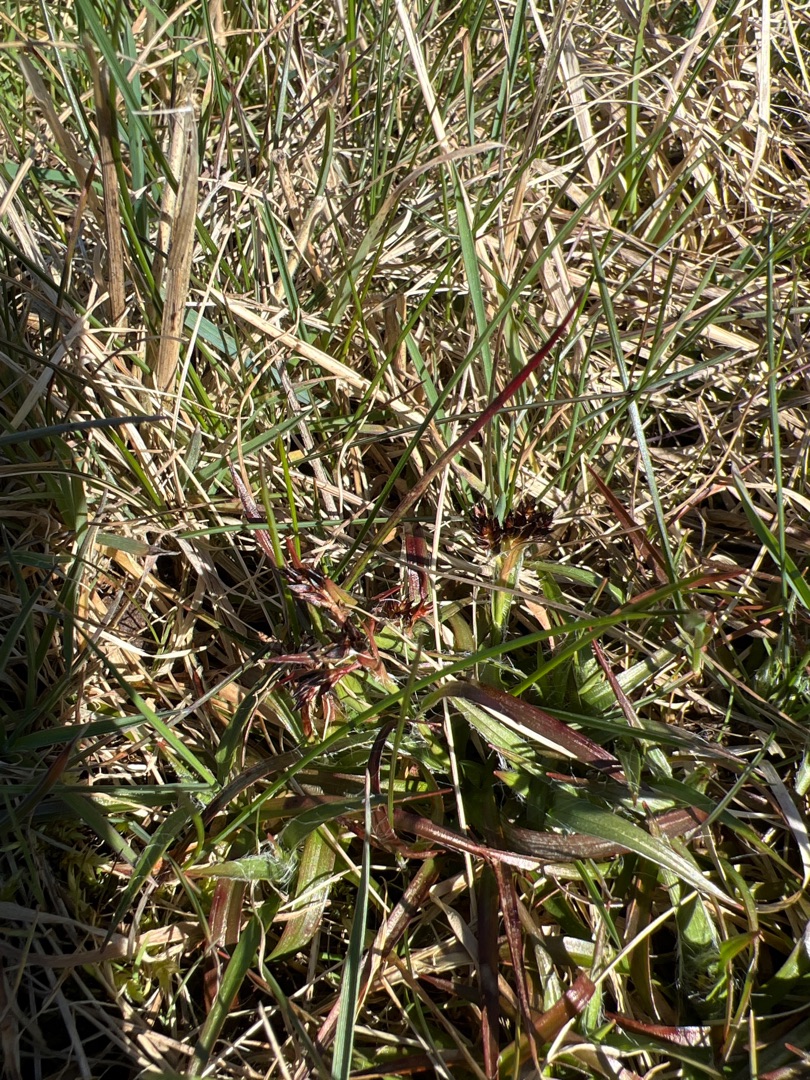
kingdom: Plantae
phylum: Tracheophyta
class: Liliopsida
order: Poales
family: Juncaceae
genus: Luzula
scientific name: Luzula campestris
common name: Mark-frytle
